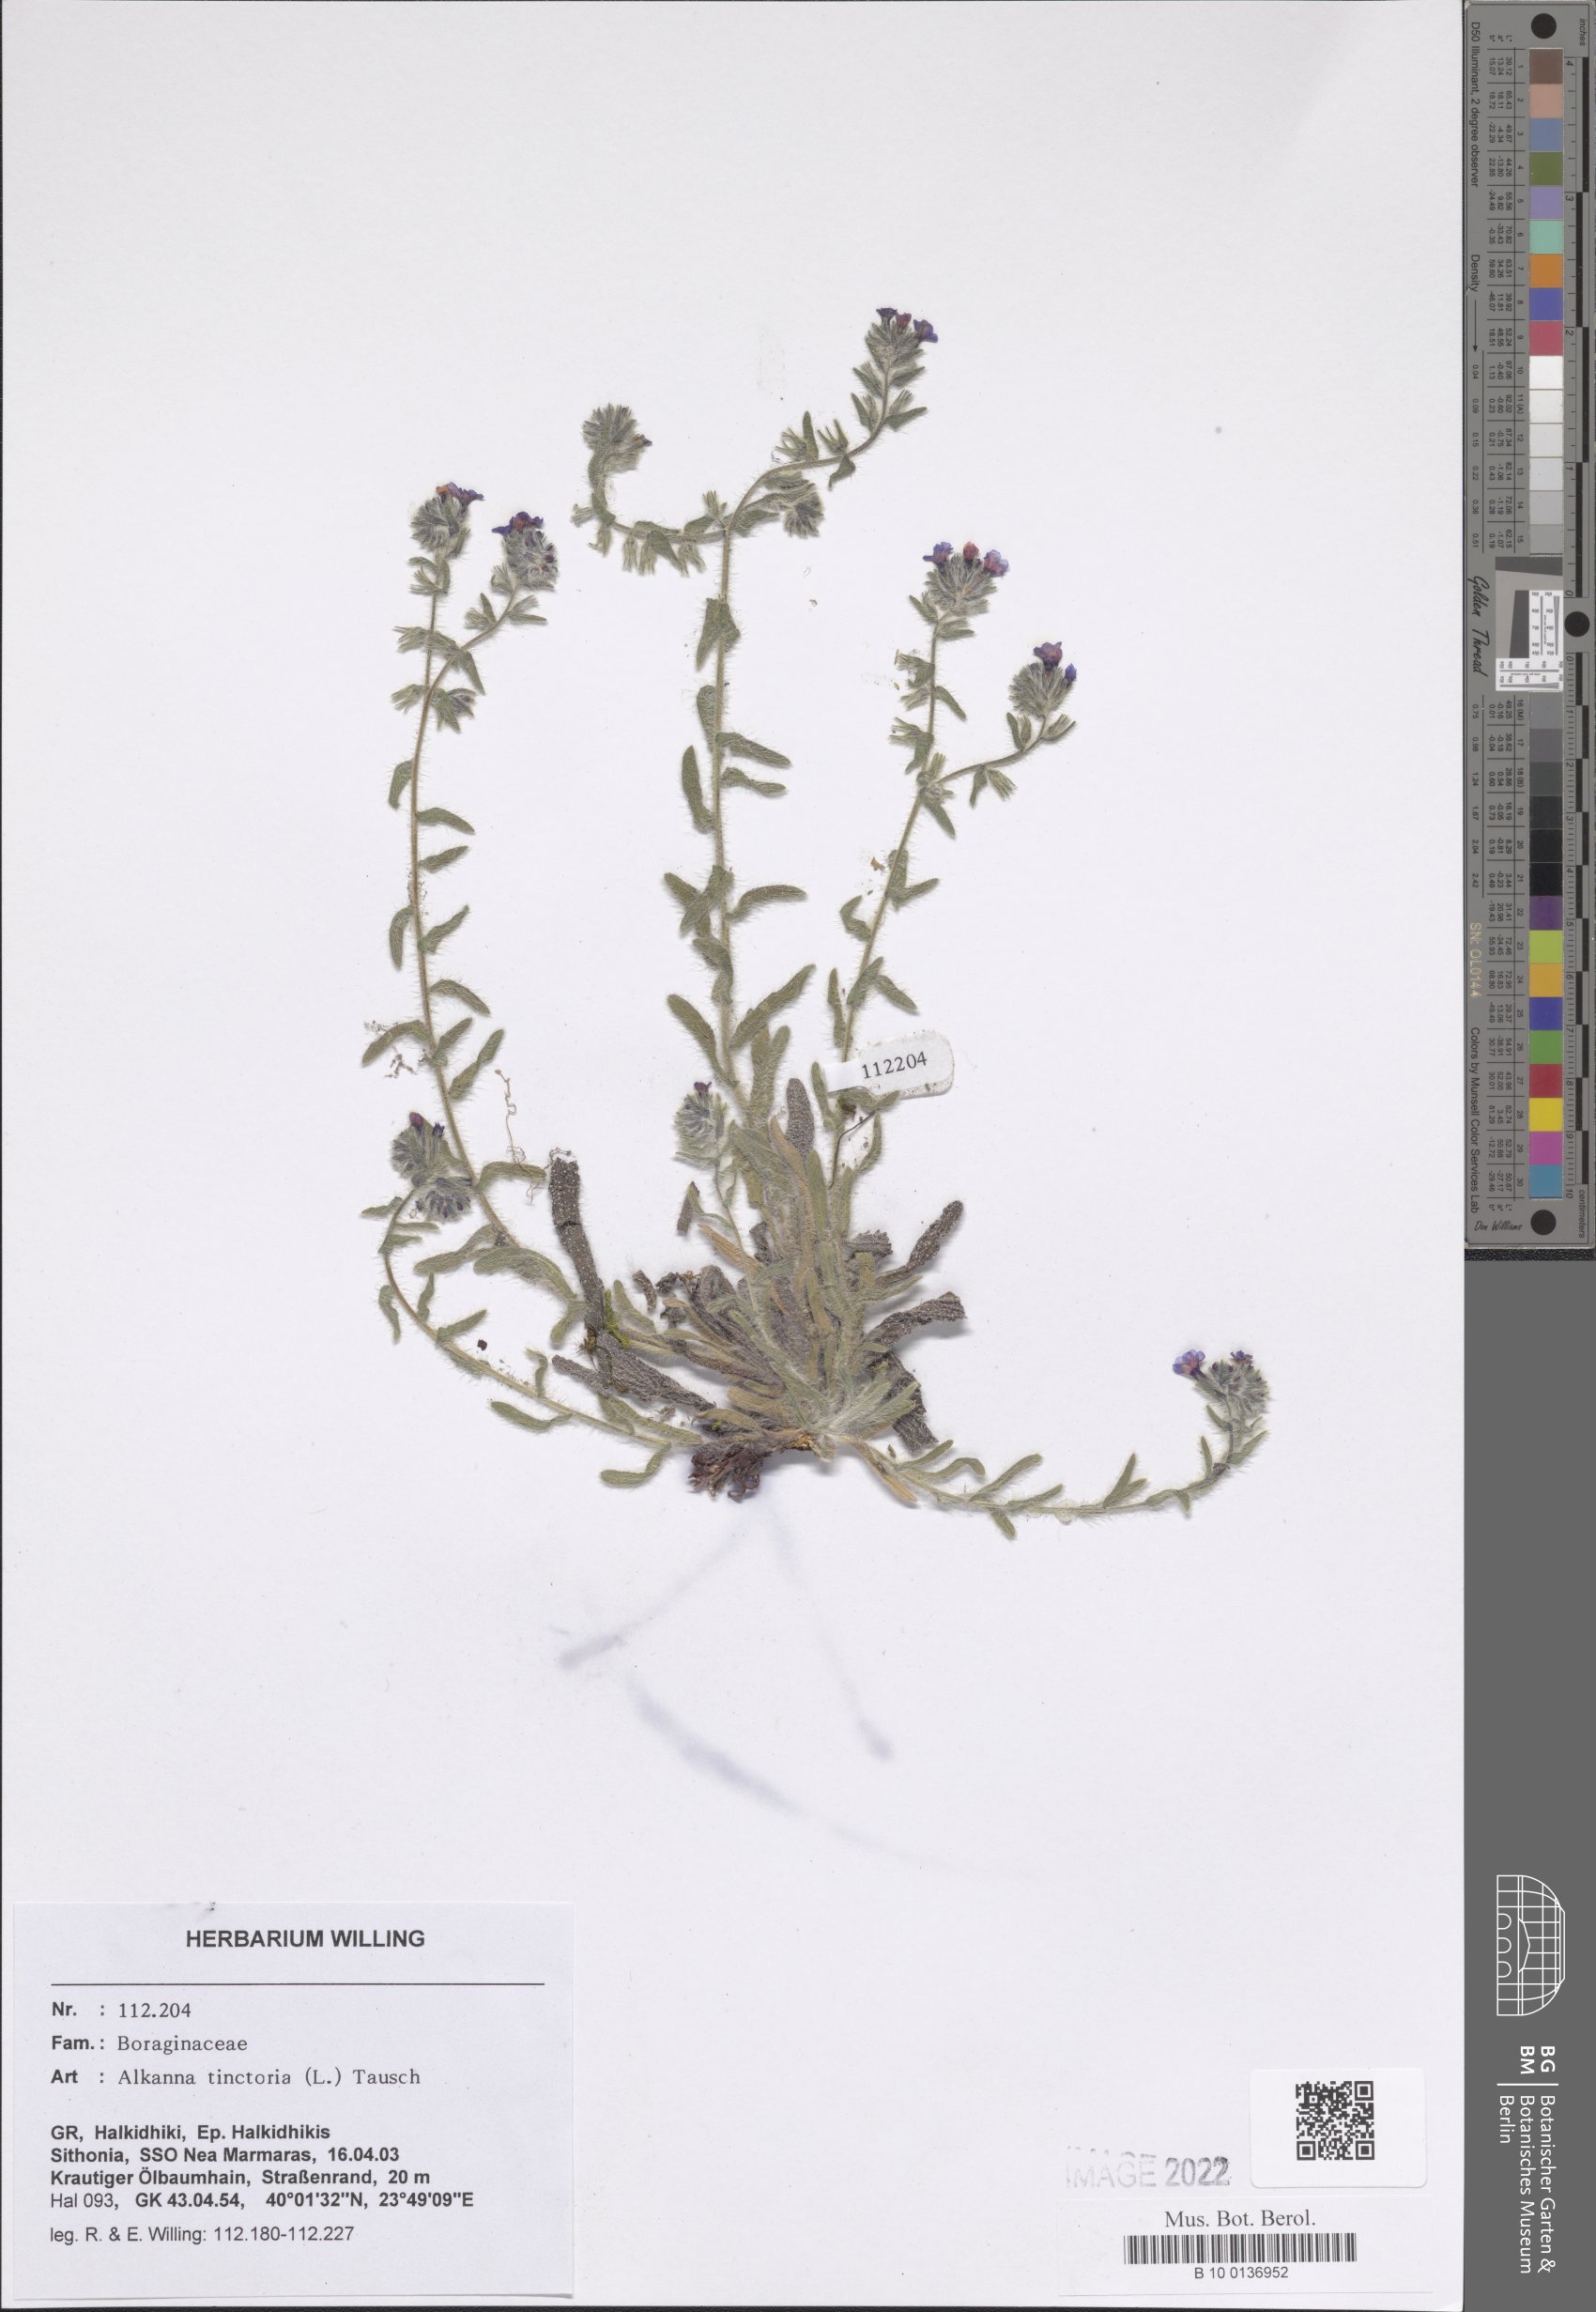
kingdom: Plantae
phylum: Tracheophyta
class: Magnoliopsida
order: Boraginales
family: Boraginaceae
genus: Alkanna
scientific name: Alkanna tinctoria
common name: Dyer's-alkanet
